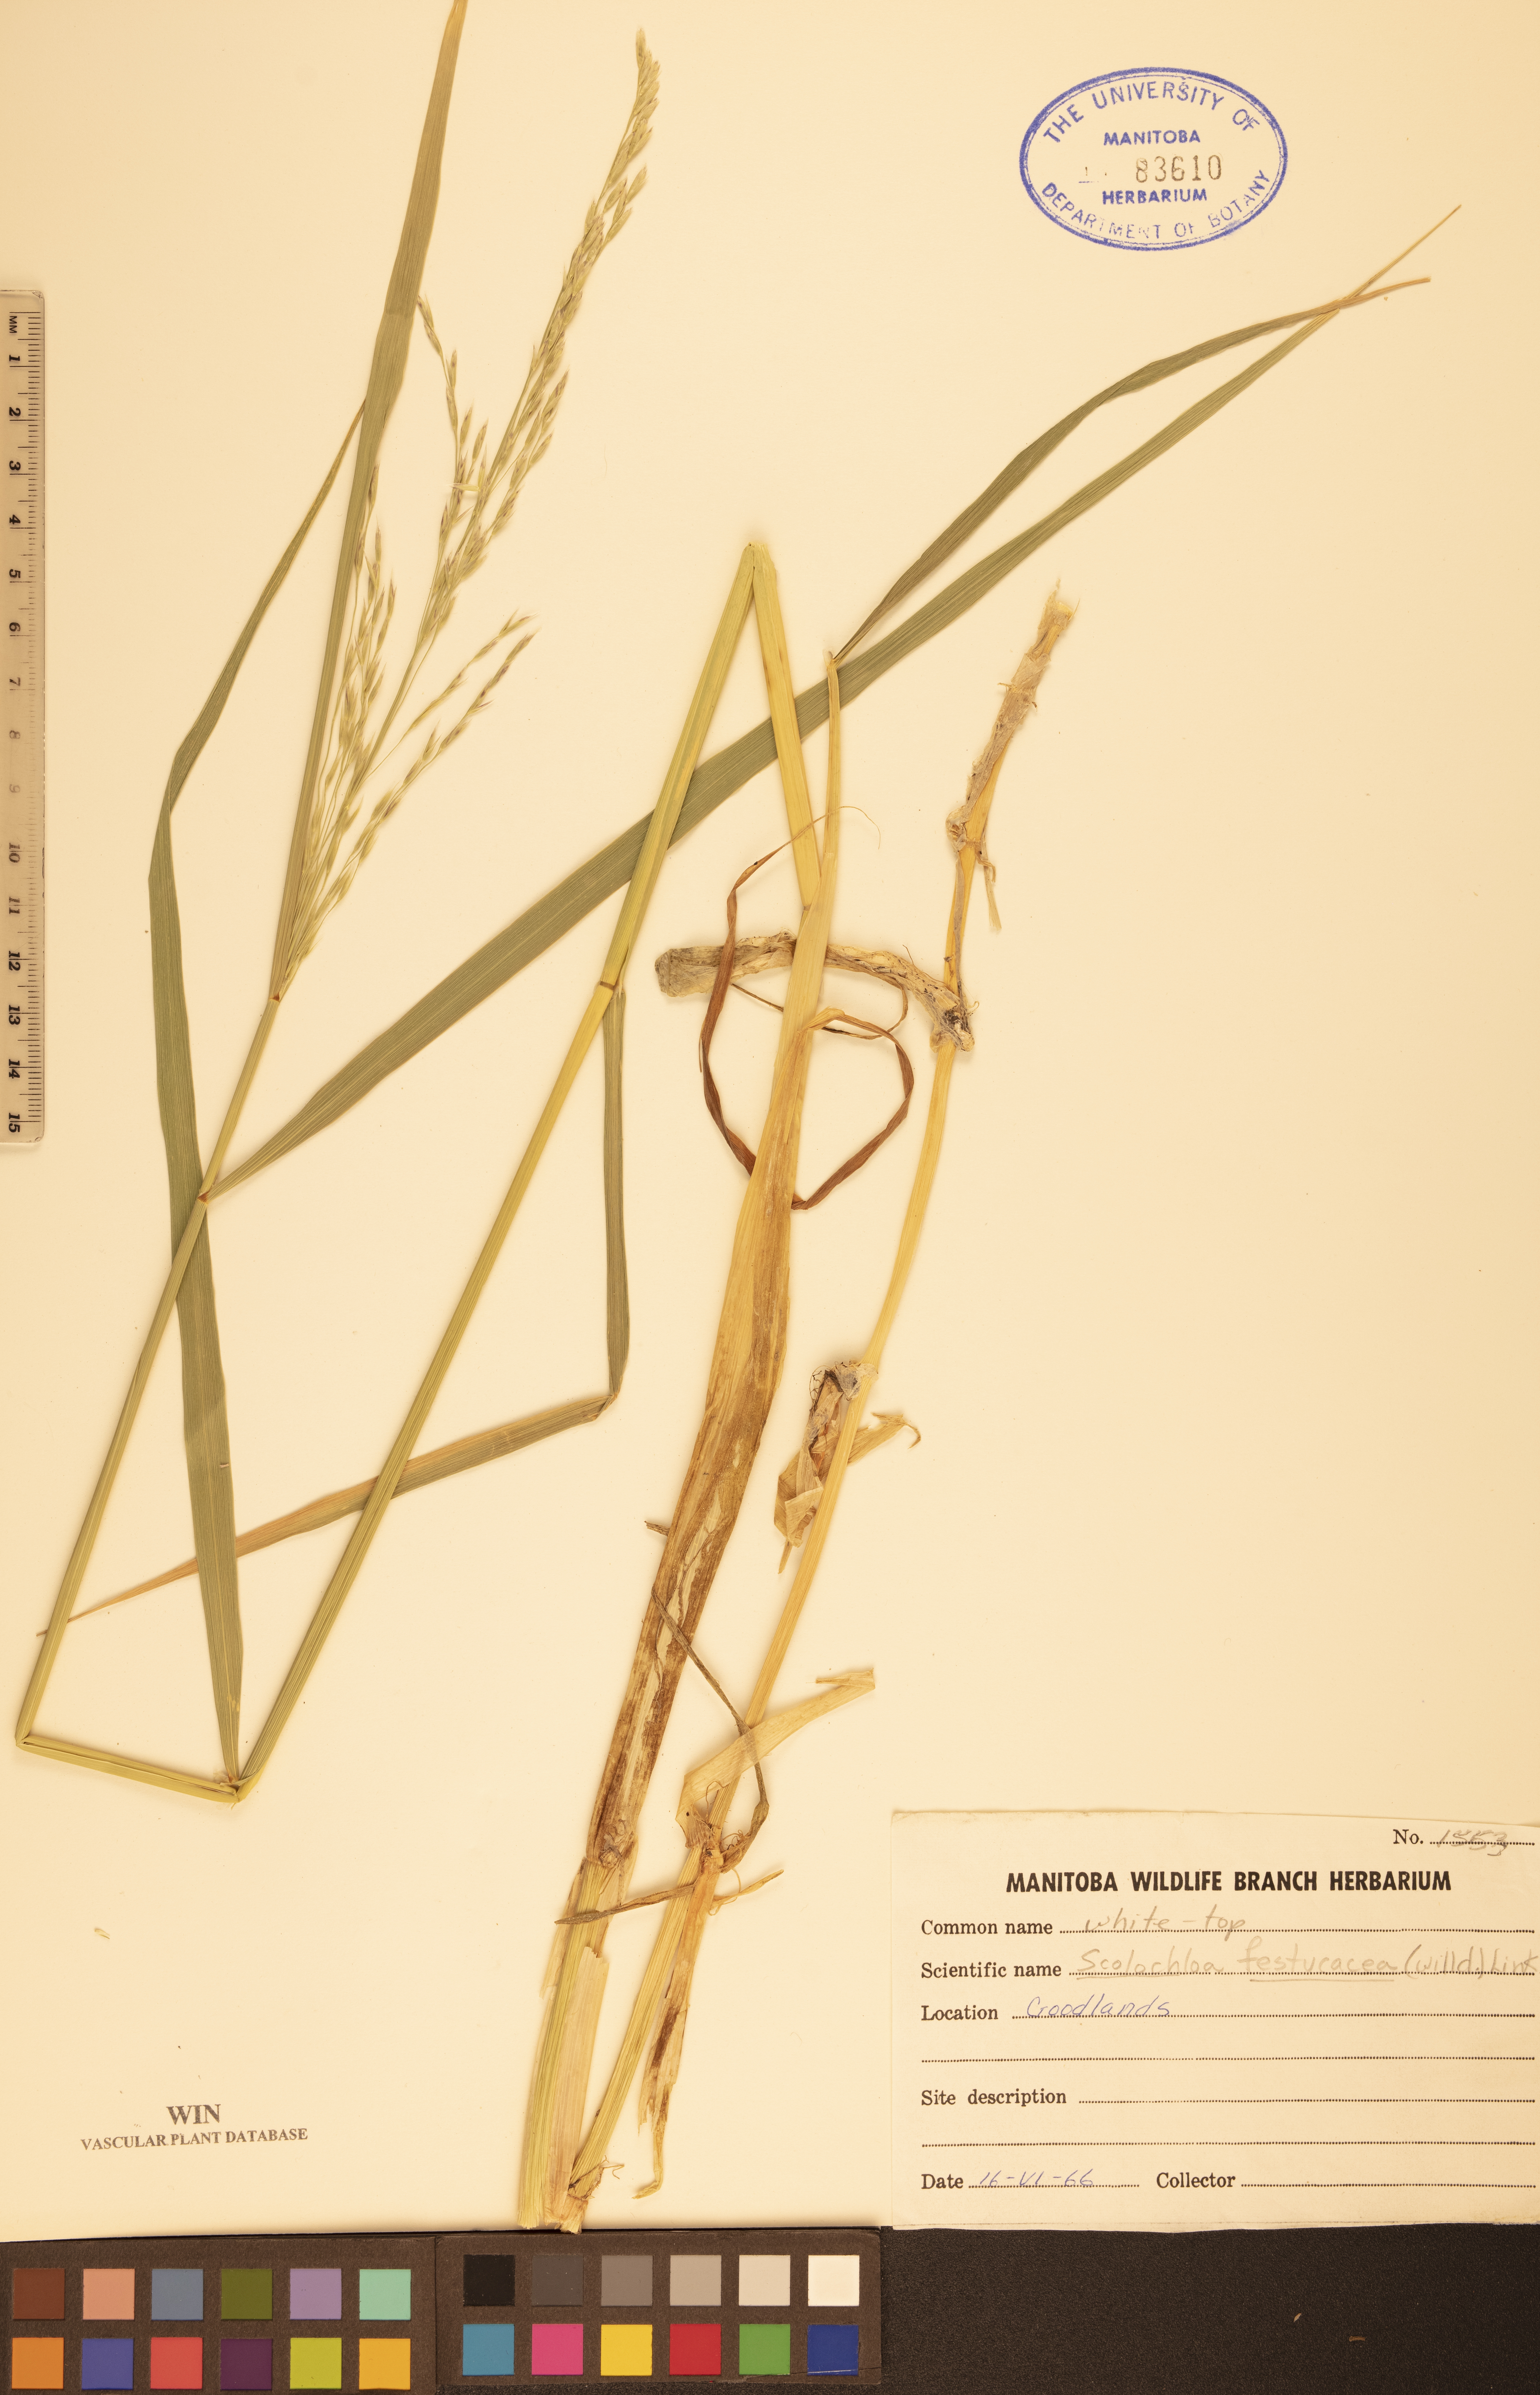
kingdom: Plantae
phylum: Tracheophyta
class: Liliopsida
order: Poales
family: Poaceae
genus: Scolochloa
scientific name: Scolochloa festucacea
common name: Common rivergrass
